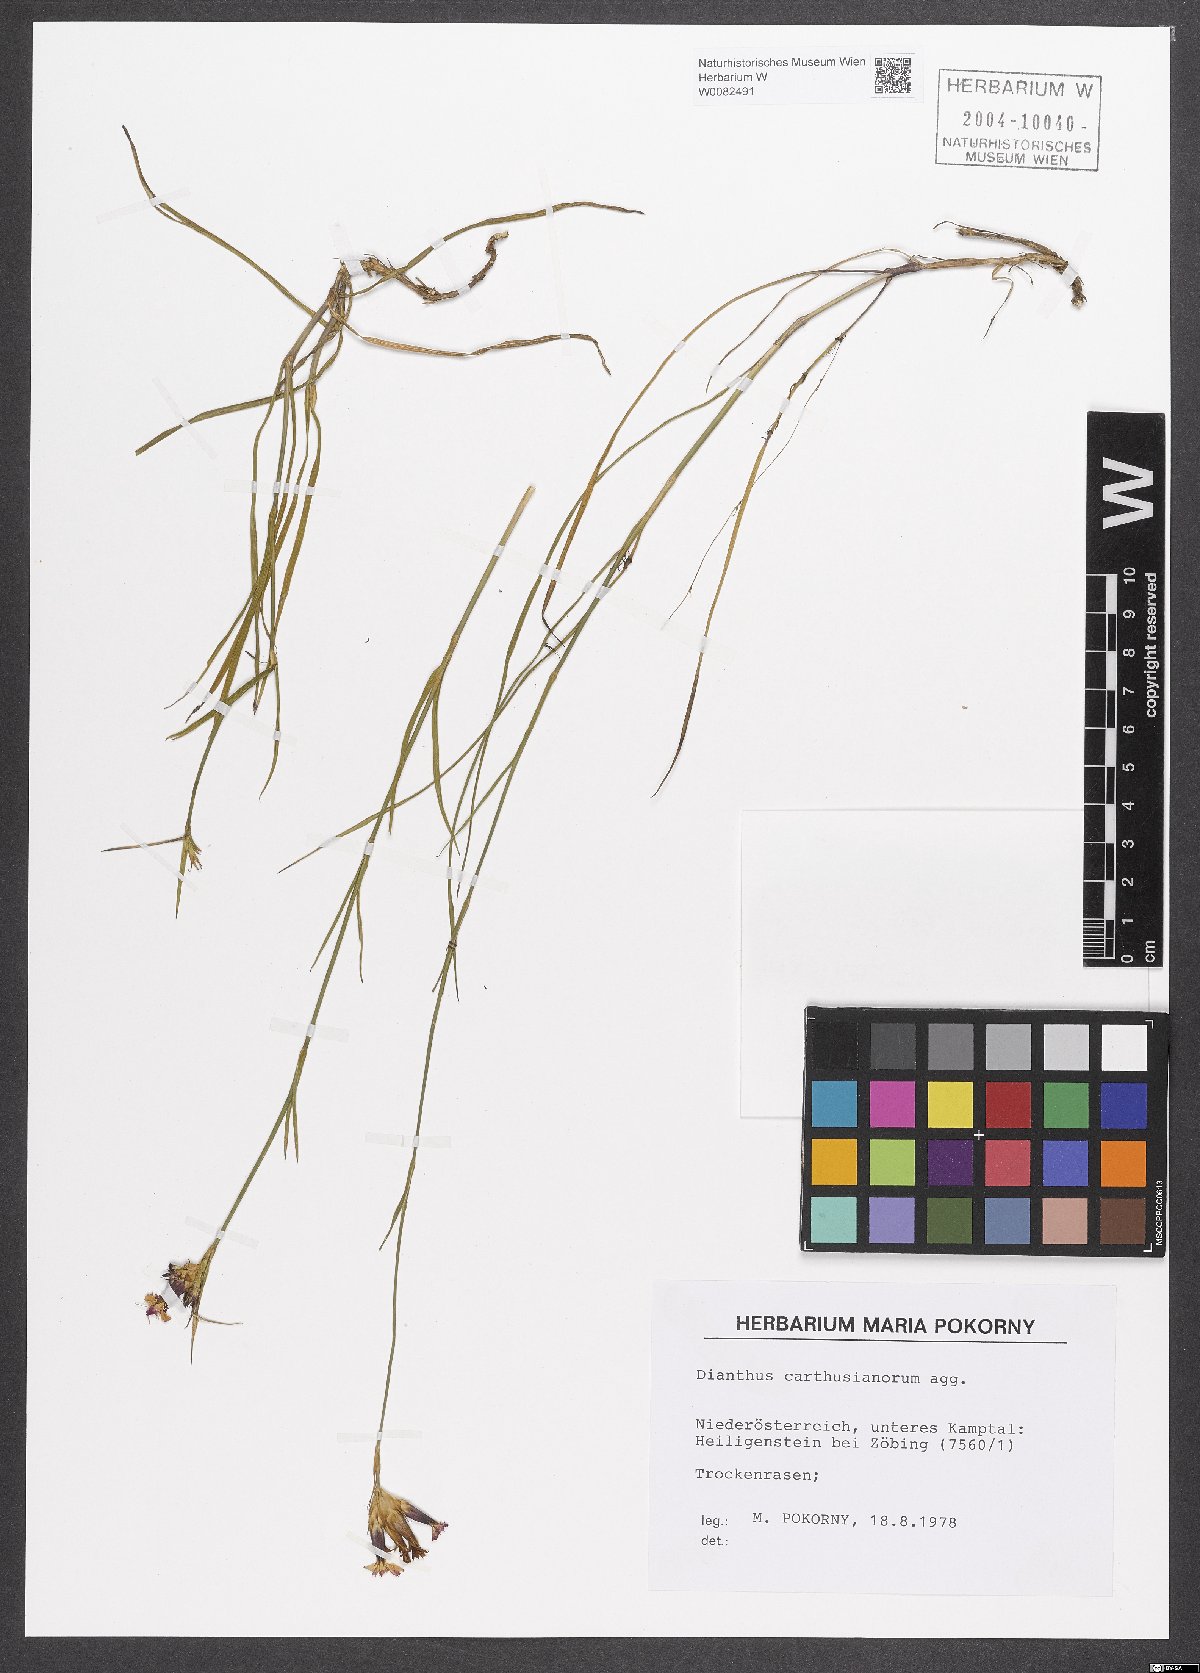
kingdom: Plantae
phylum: Tracheophyta
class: Magnoliopsida
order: Caryophyllales
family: Caryophyllaceae
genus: Dianthus
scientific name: Dianthus carthusianorum
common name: Carthusian pink
